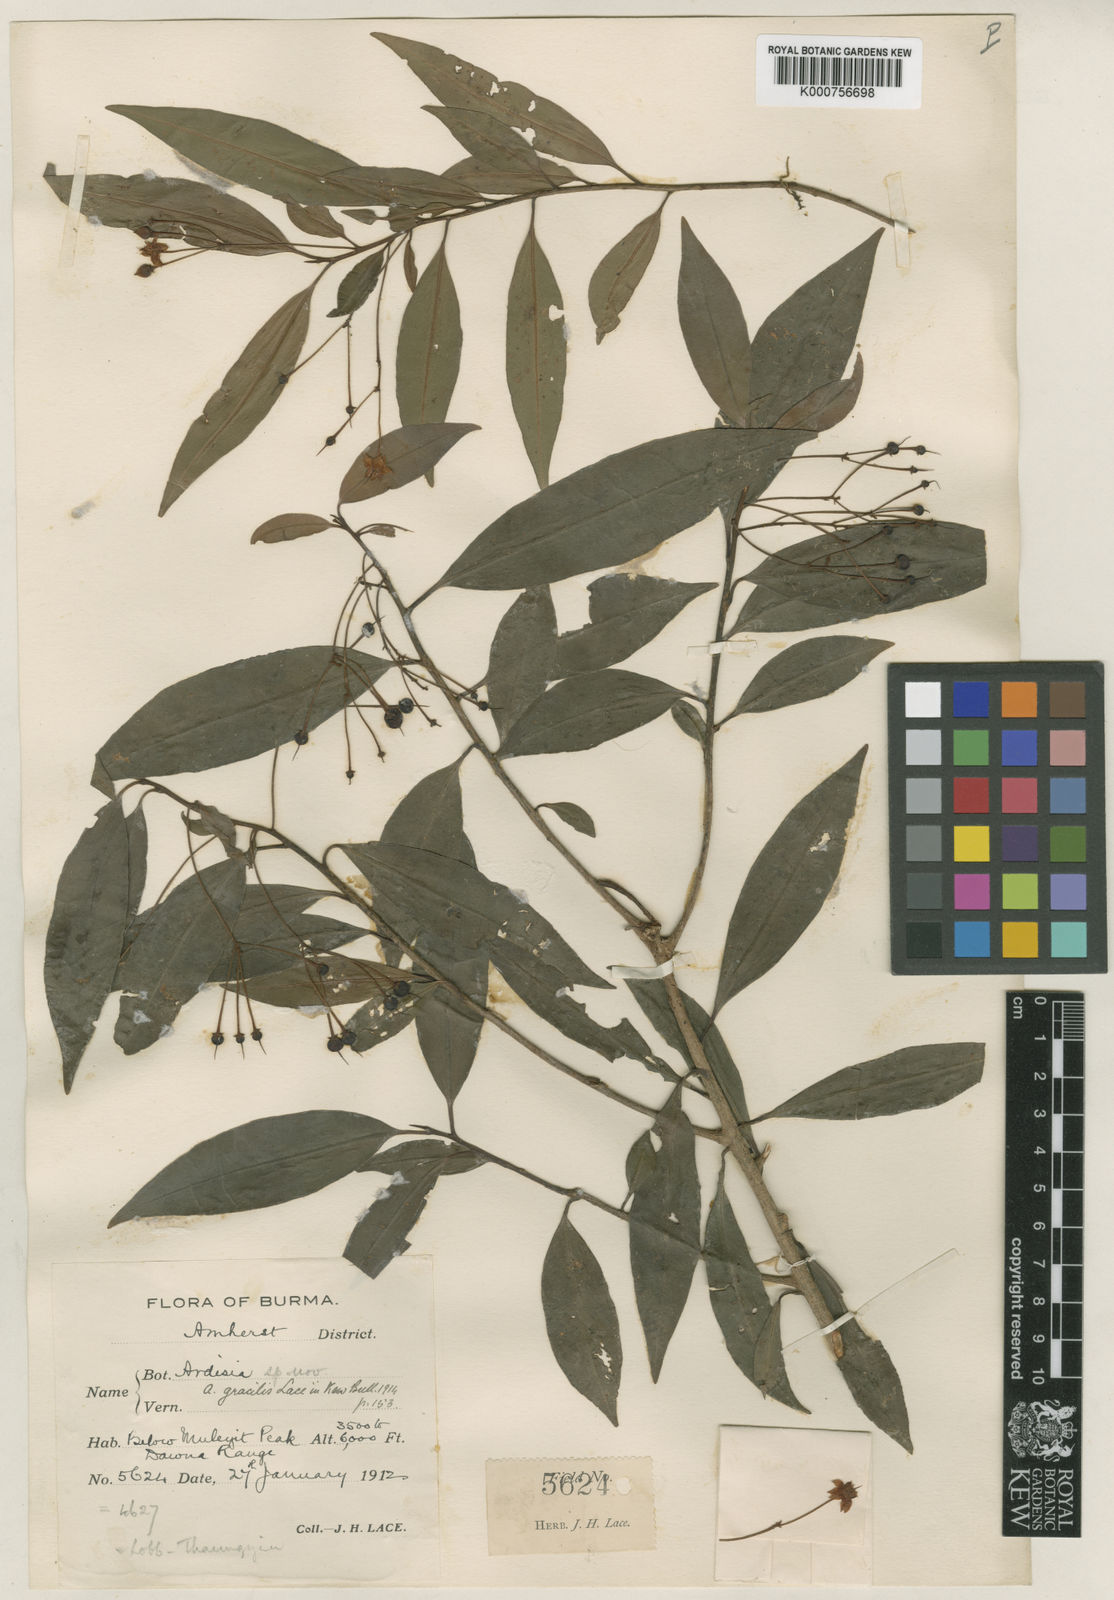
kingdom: Plantae
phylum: Tracheophyta
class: Magnoliopsida
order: Ericales
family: Primulaceae
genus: Ardisia
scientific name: Ardisia dawnaea
